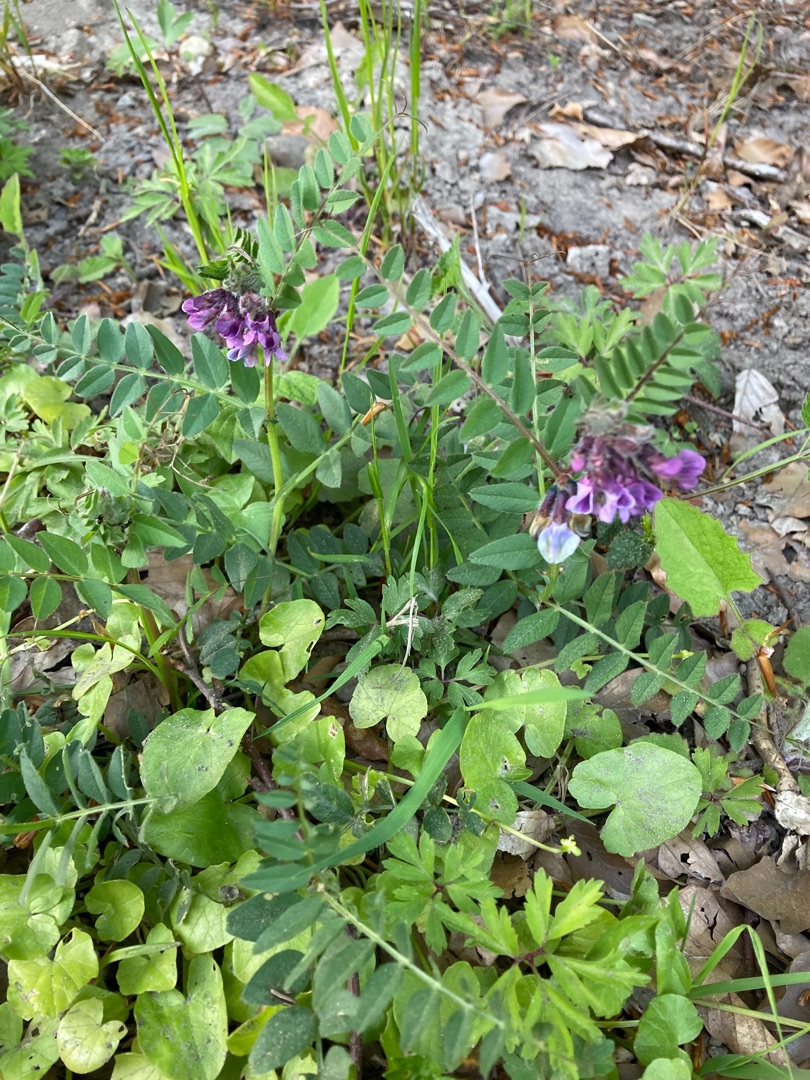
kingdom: Plantae
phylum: Tracheophyta
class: Magnoliopsida
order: Fabales
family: Fabaceae
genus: Vicia
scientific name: Vicia sepium
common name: Gærde-vikke
